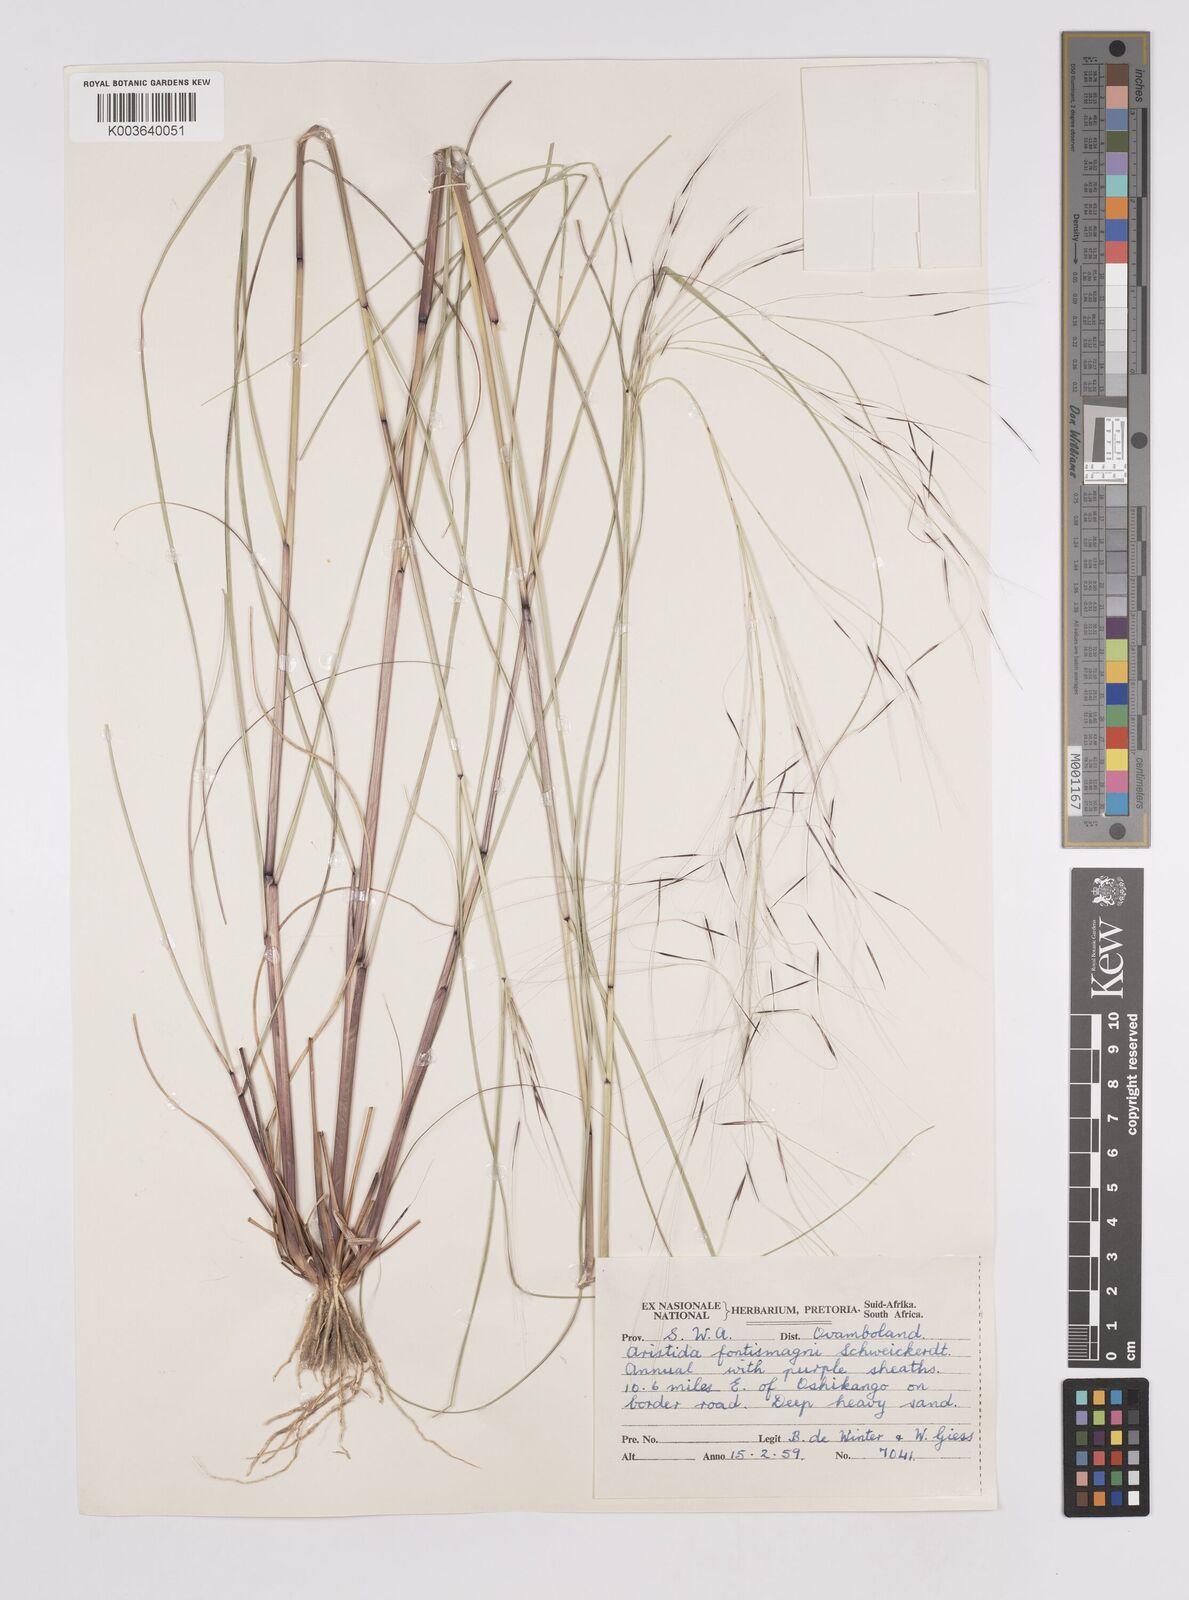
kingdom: Plantae
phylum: Tracheophyta
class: Liliopsida
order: Poales
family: Poaceae
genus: Aristida
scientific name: Aristida stipoides
